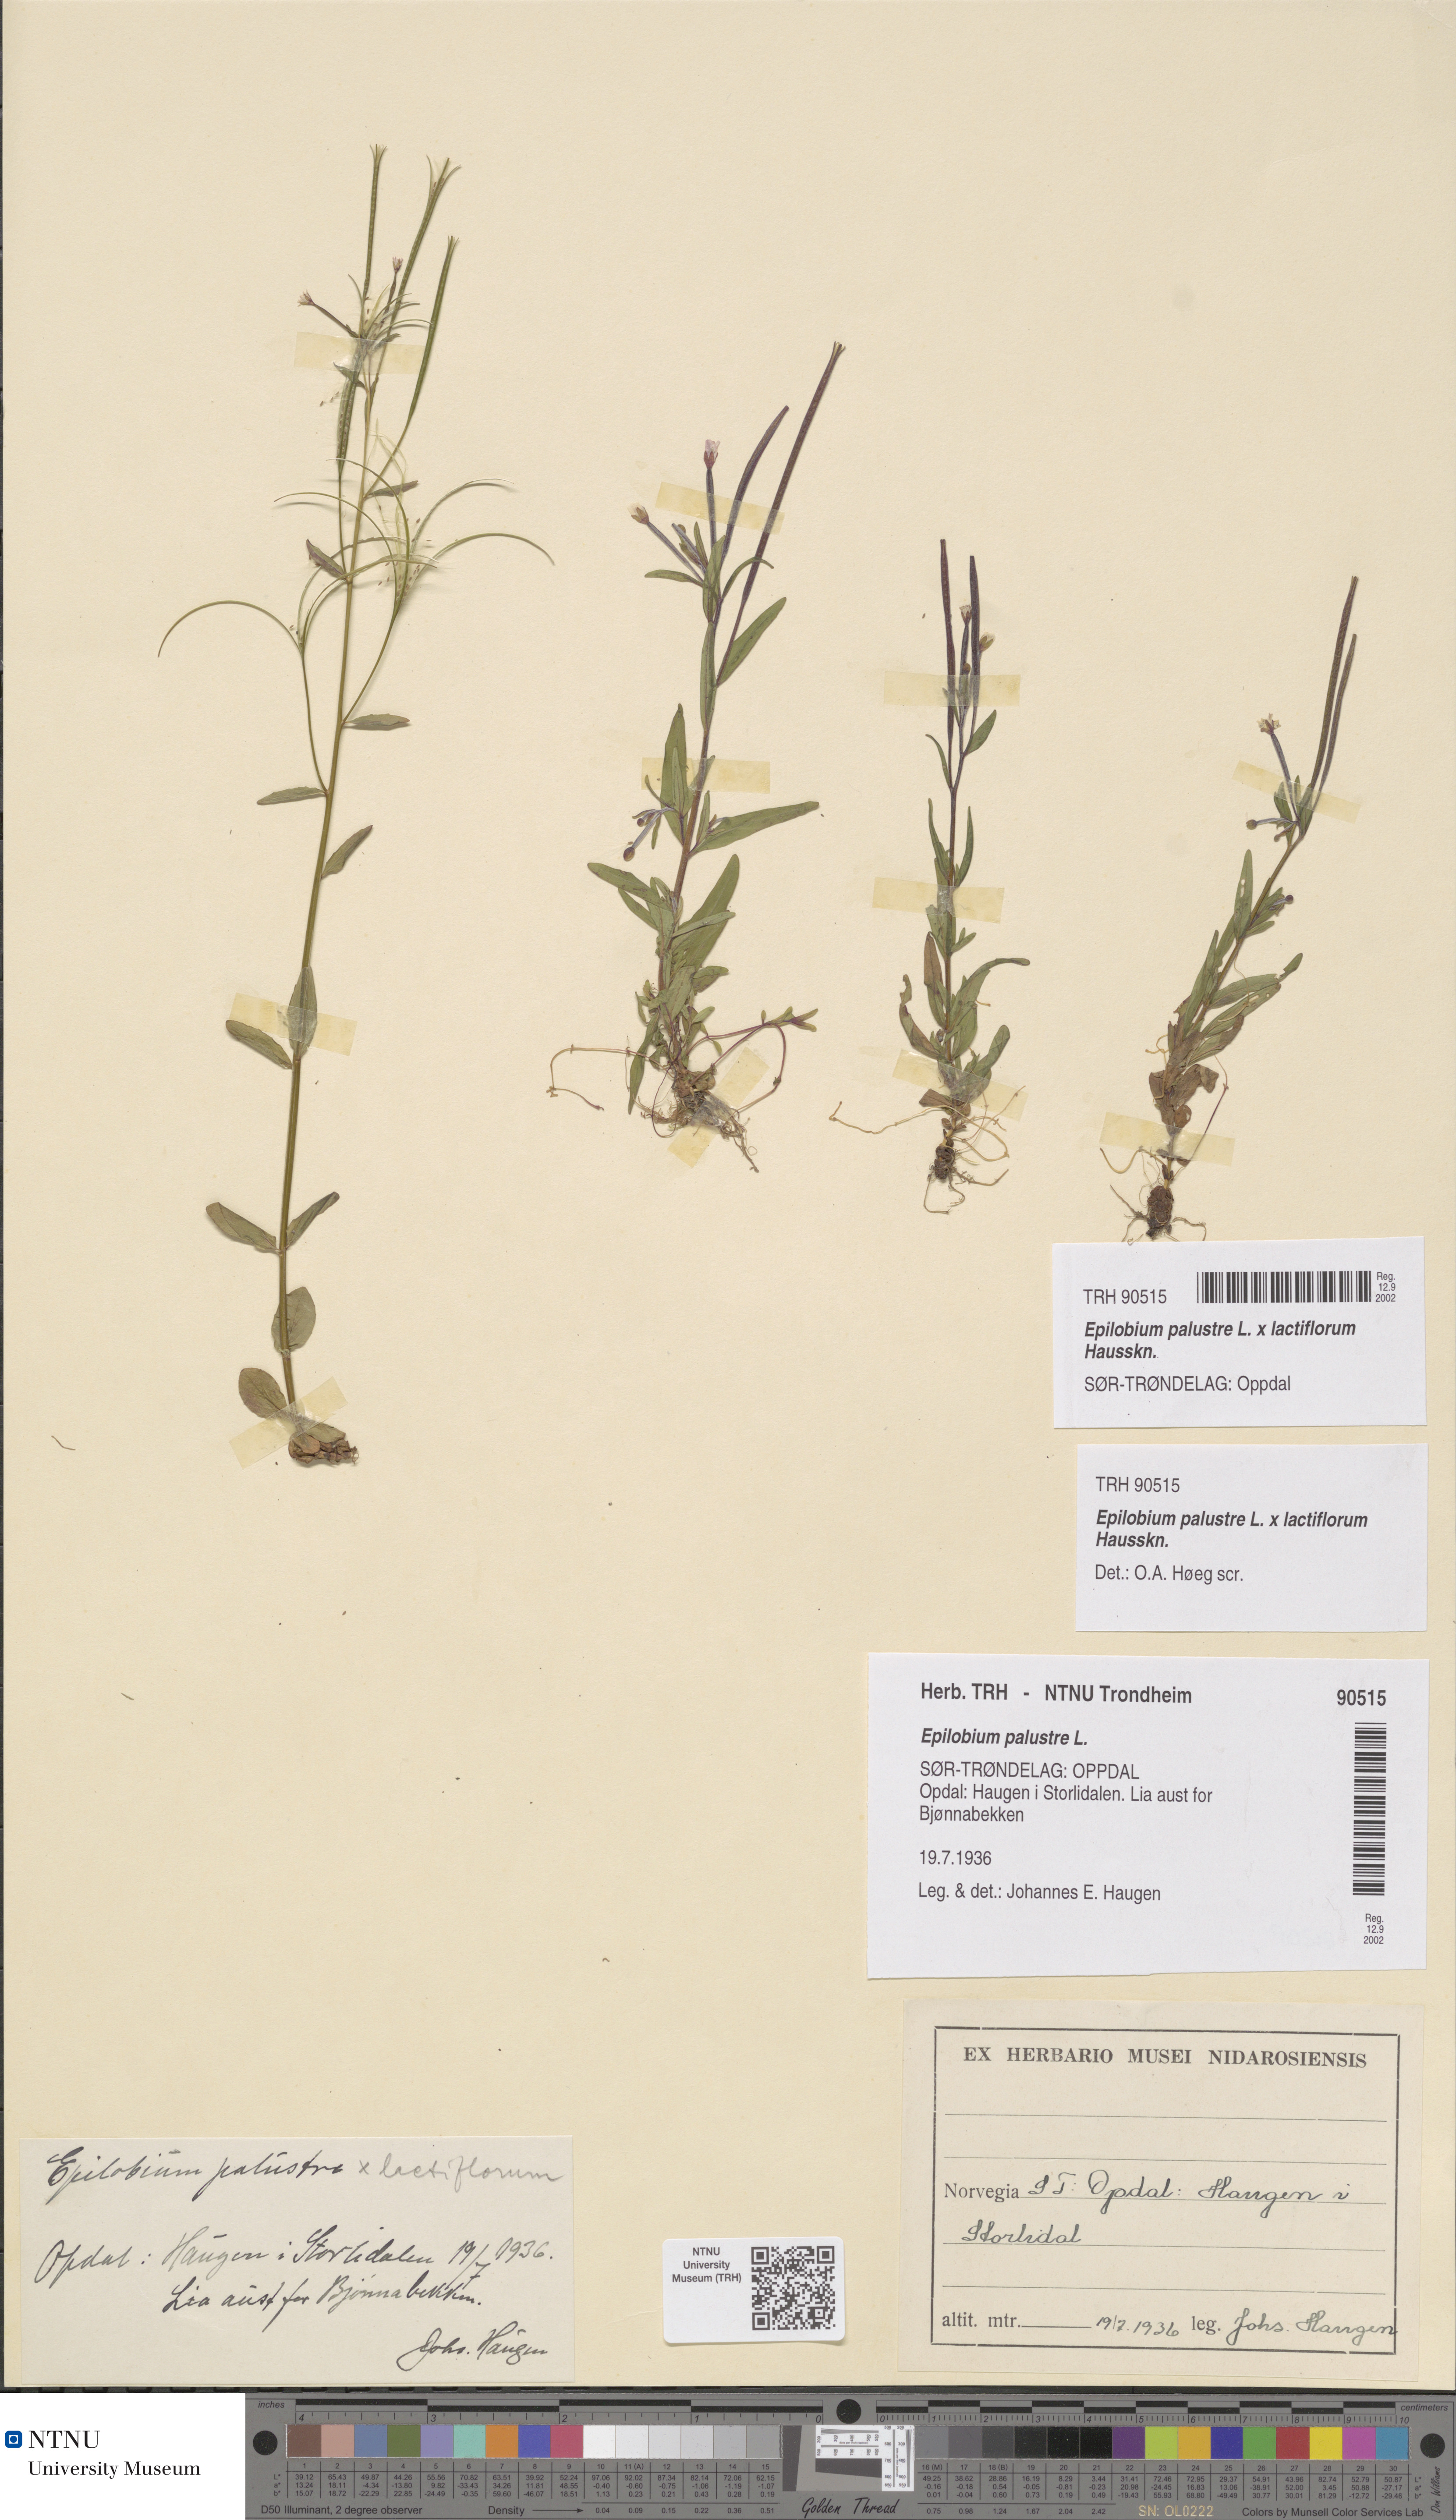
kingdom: Plantae
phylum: Tracheophyta
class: Magnoliopsida
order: Myrtales
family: Onagraceae
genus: Epilobium
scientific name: Epilobium palustre
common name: Marsh willowherb
